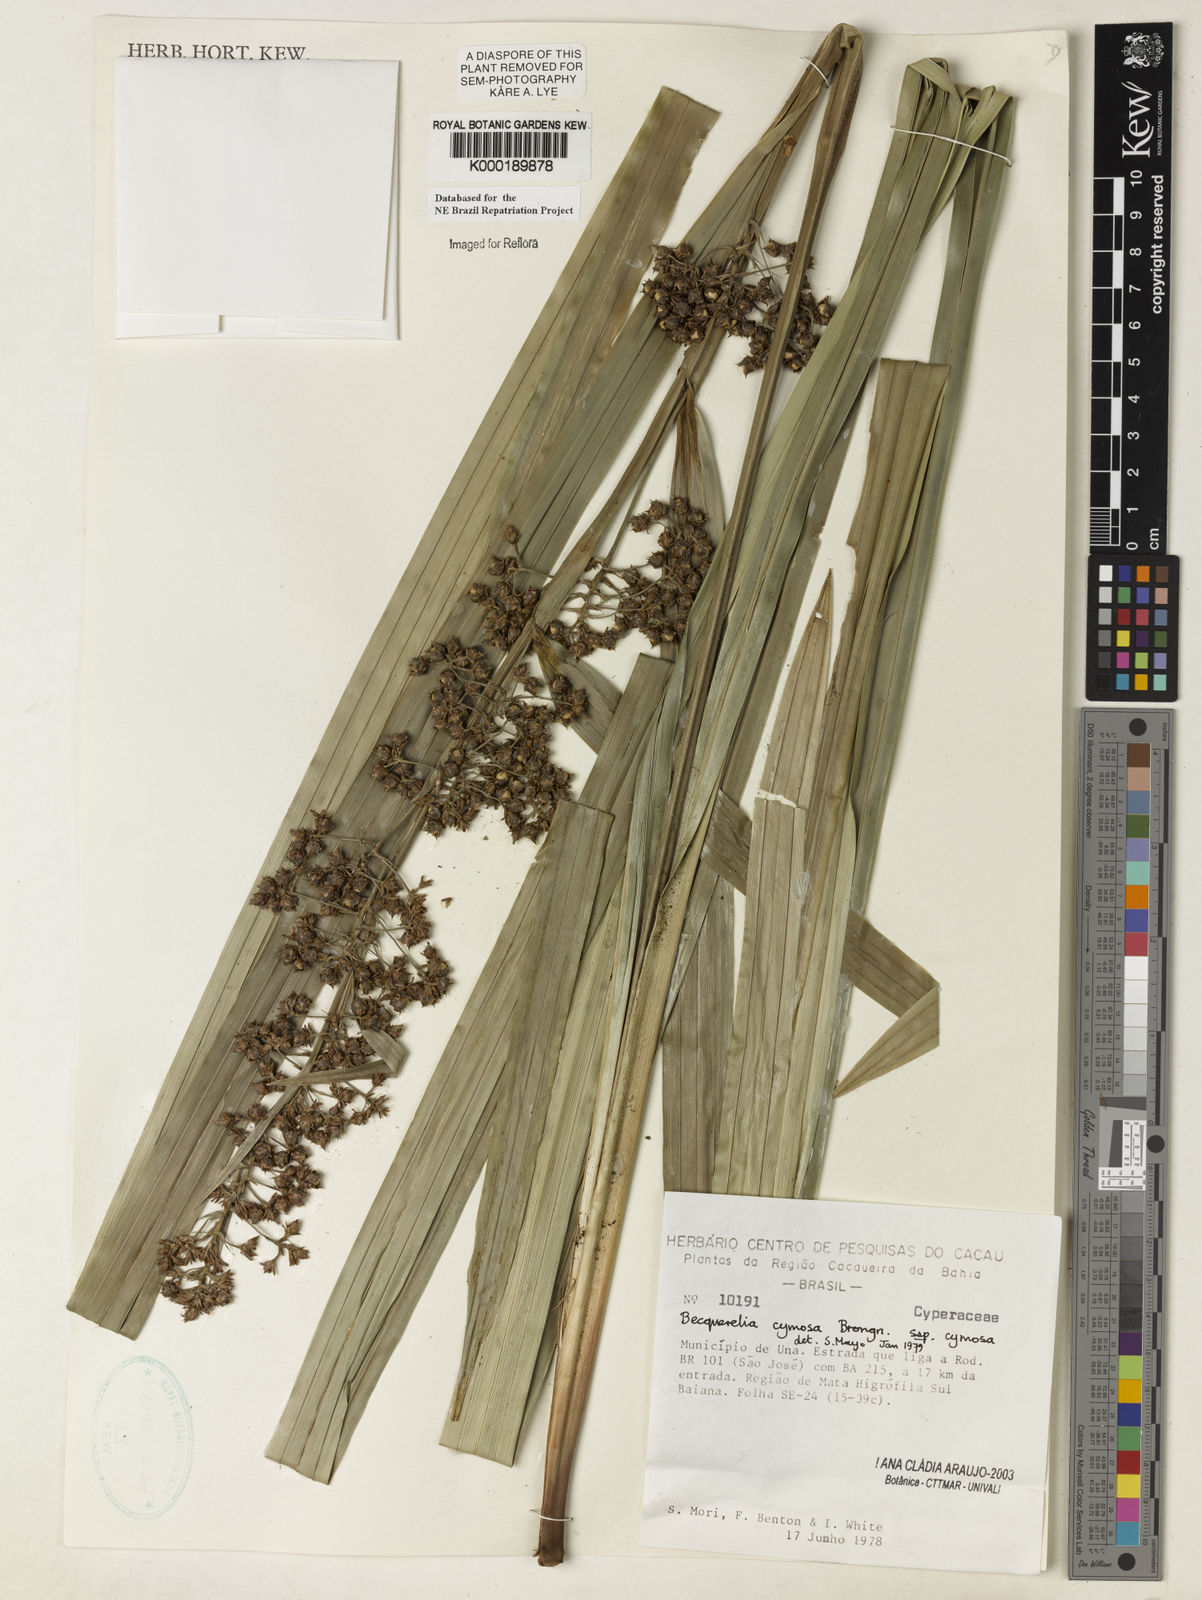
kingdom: Plantae
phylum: Tracheophyta
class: Liliopsida
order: Poales
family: Cyperaceae
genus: Becquerelia
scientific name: Becquerelia cymosa
